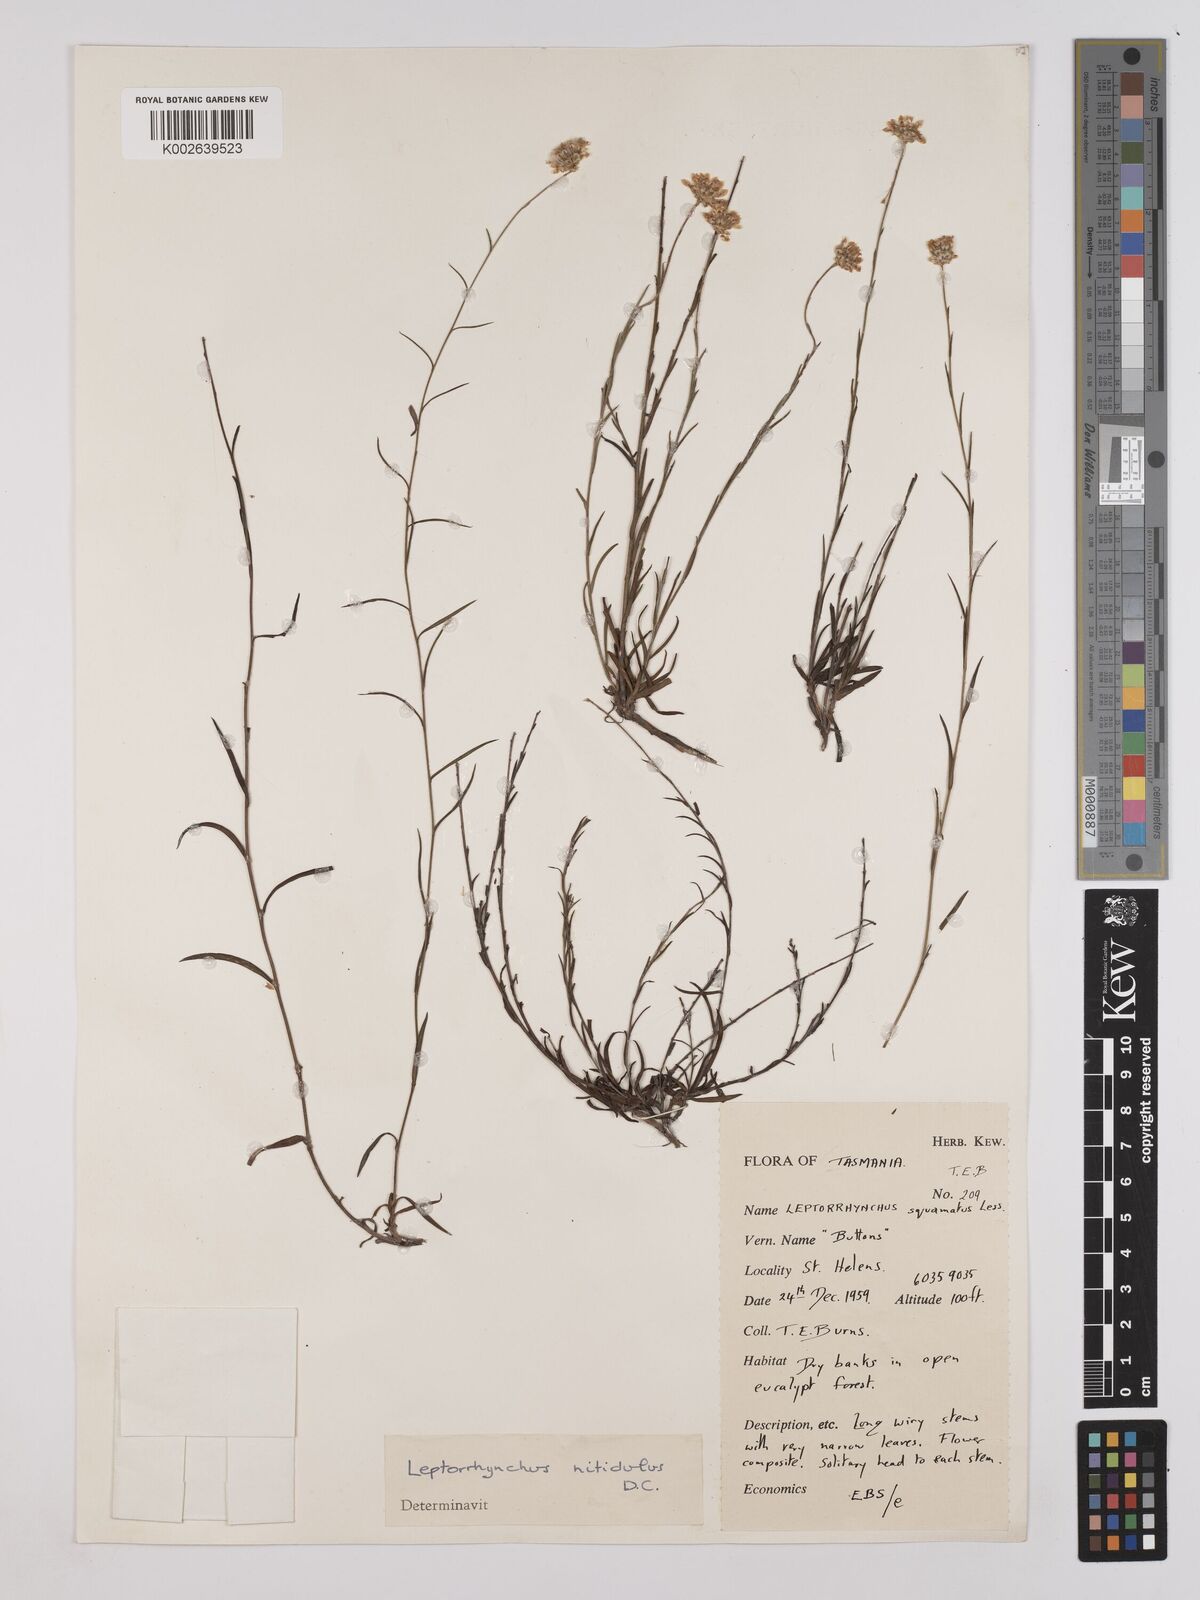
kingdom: Plantae
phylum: Tracheophyta
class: Magnoliopsida
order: Asterales
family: Asteraceae
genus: Leptorhynchos
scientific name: Leptorhynchos nitidulus
